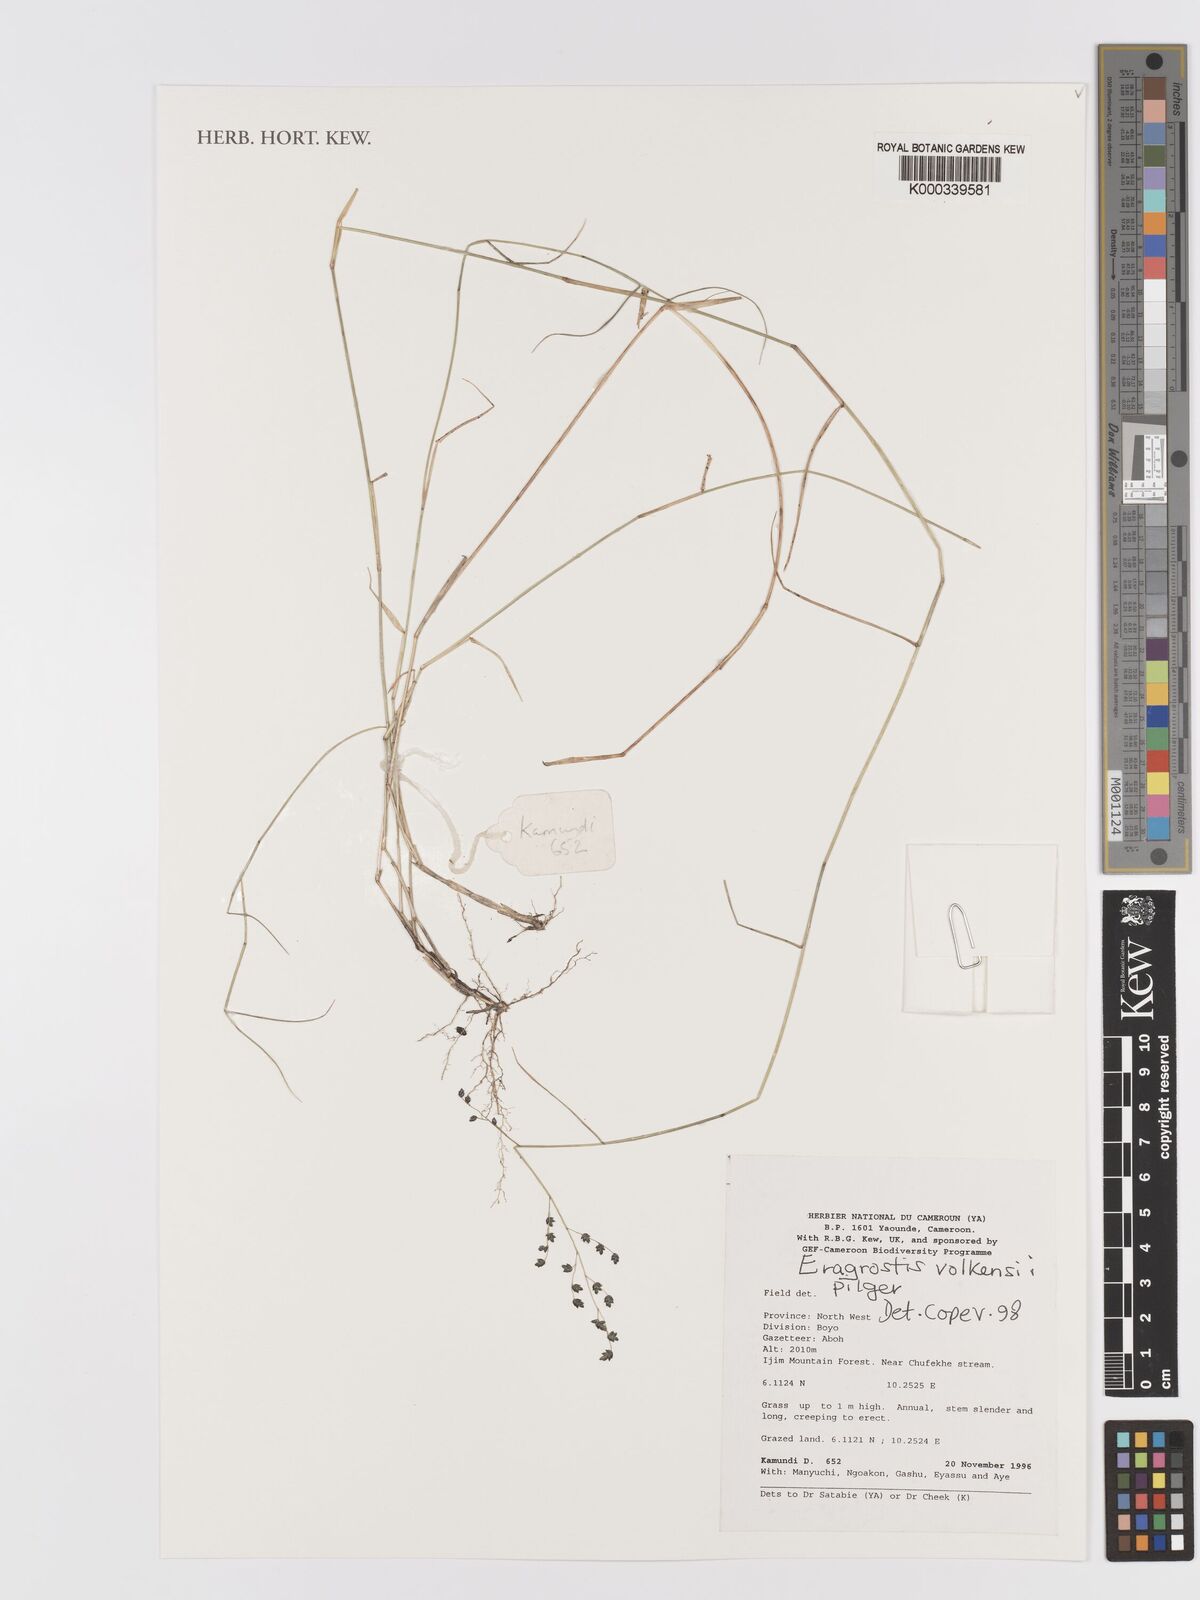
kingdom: Plantae
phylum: Tracheophyta
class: Liliopsida
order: Poales
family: Poaceae
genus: Eragrostis
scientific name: Eragrostis volkensii
